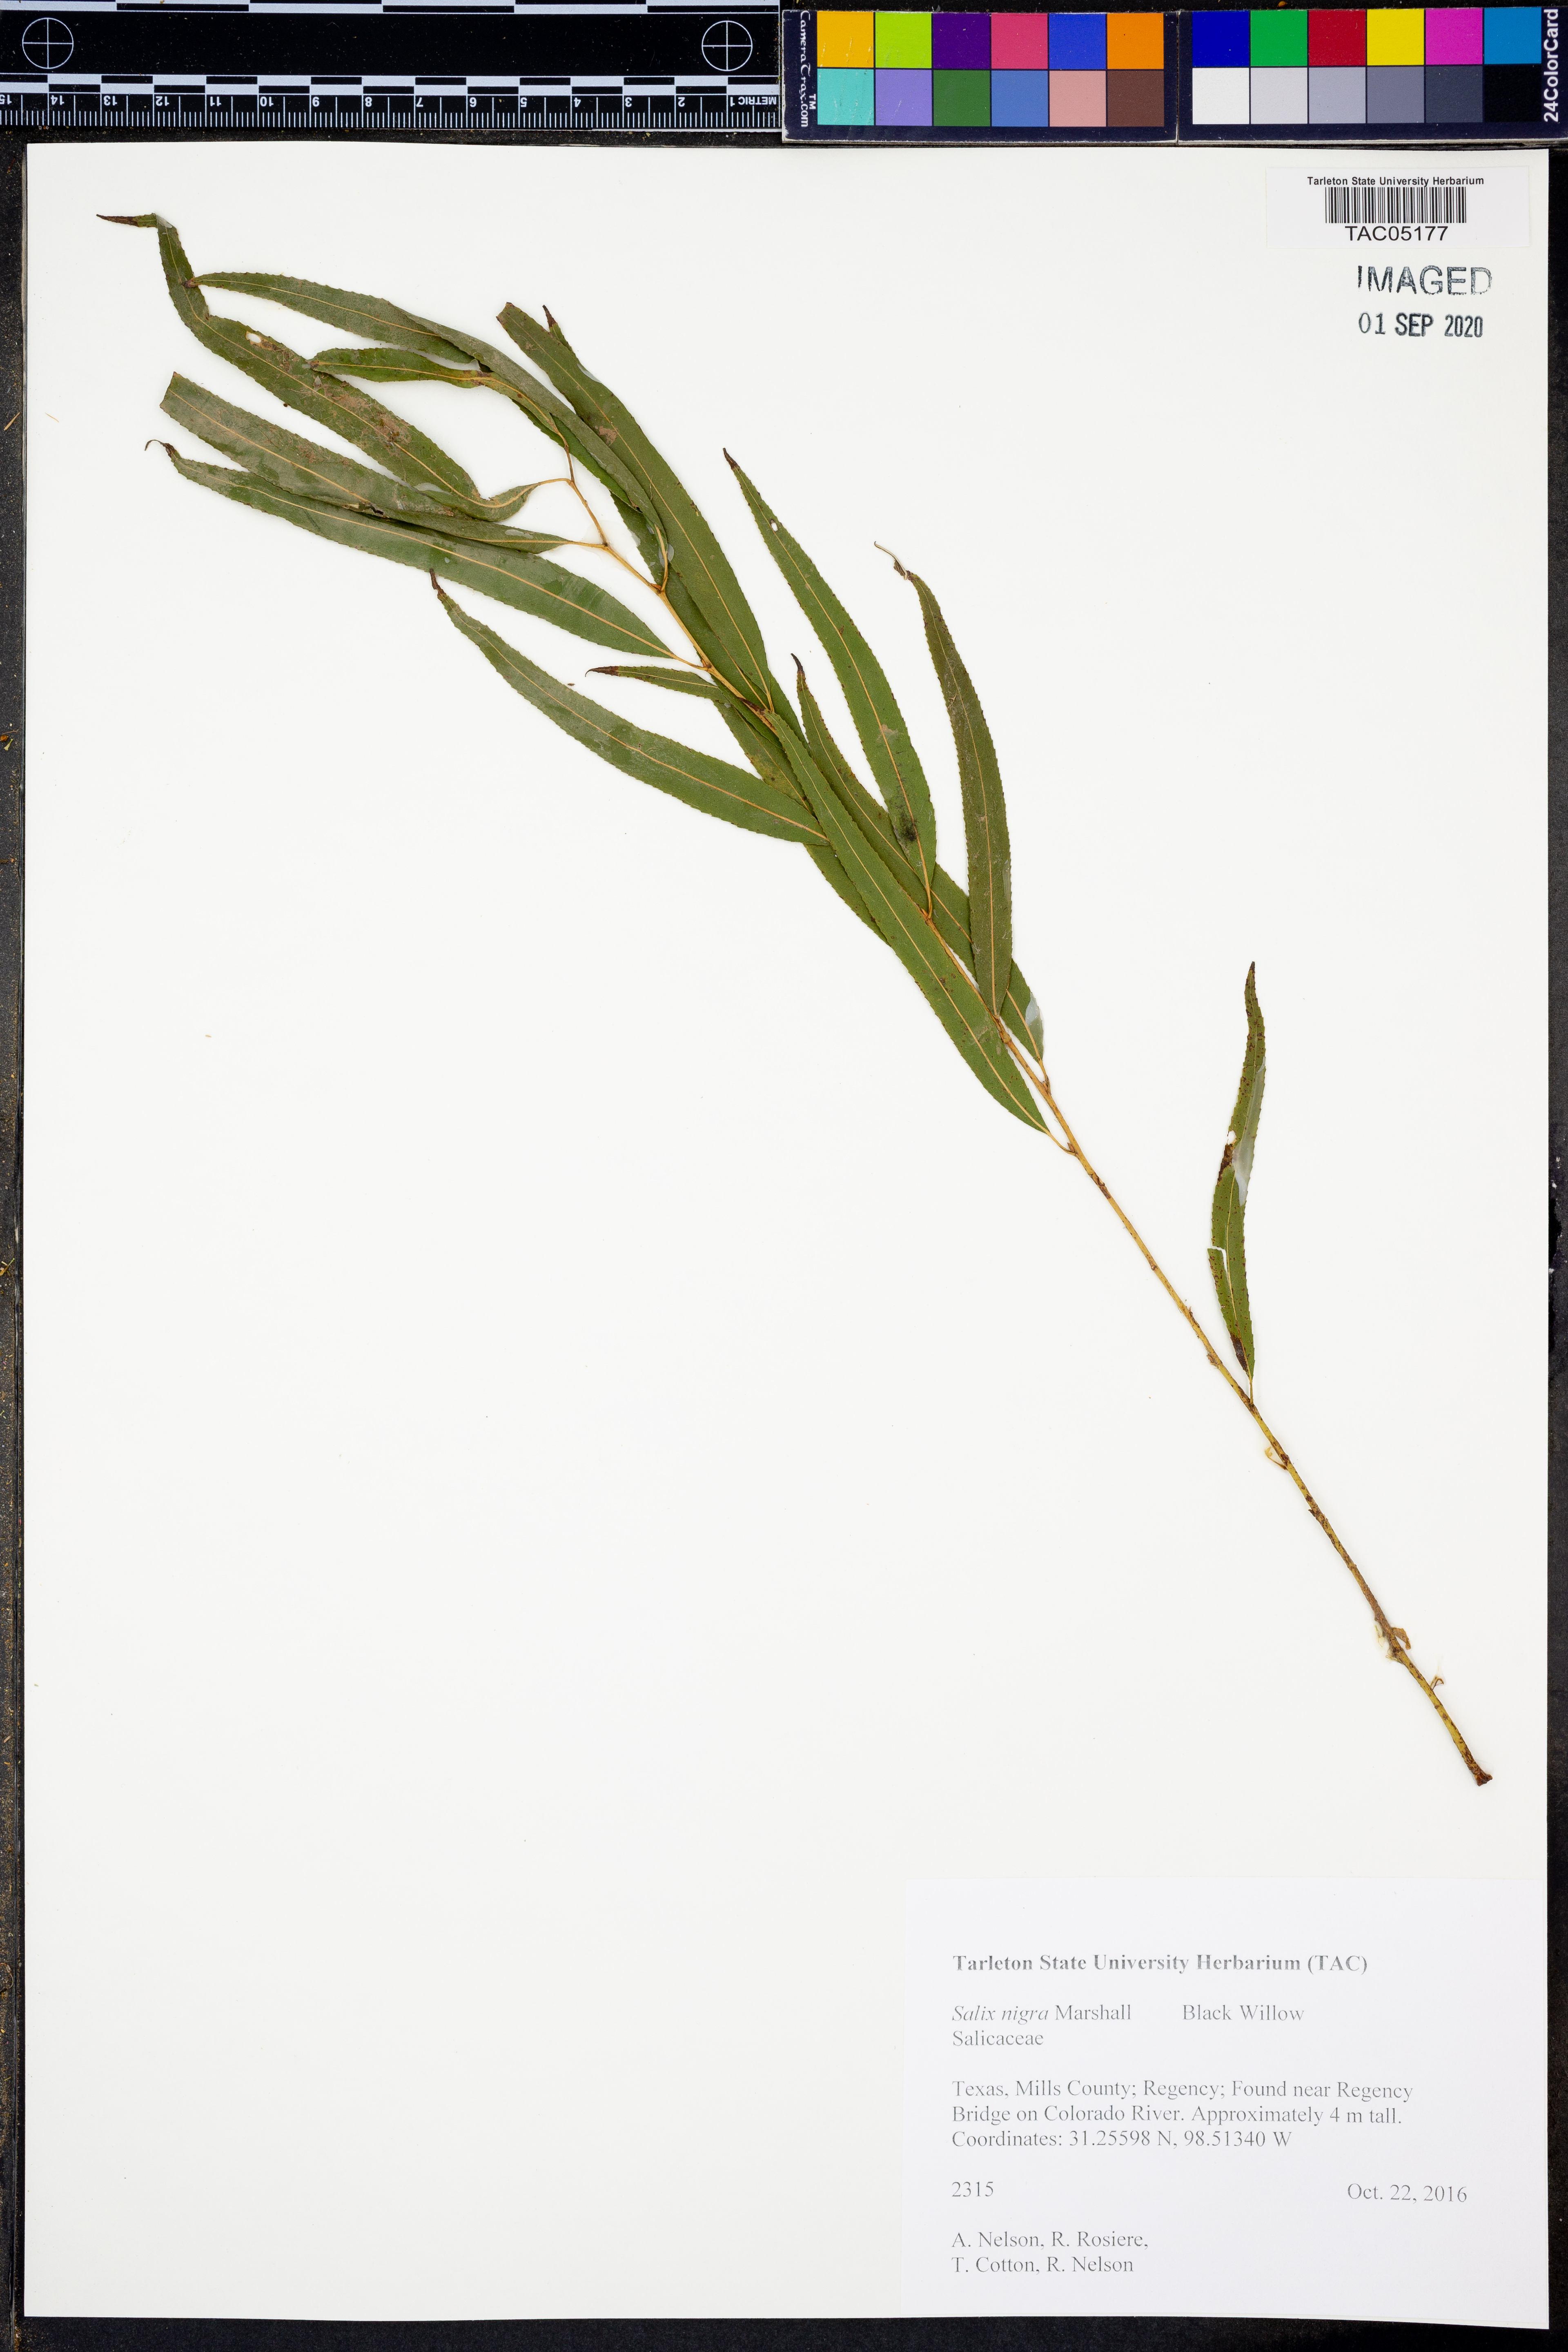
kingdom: Plantae
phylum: Tracheophyta
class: Magnoliopsida
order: Malpighiales
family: Salicaceae
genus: Salix
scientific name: Salix nigra
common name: Black willow
